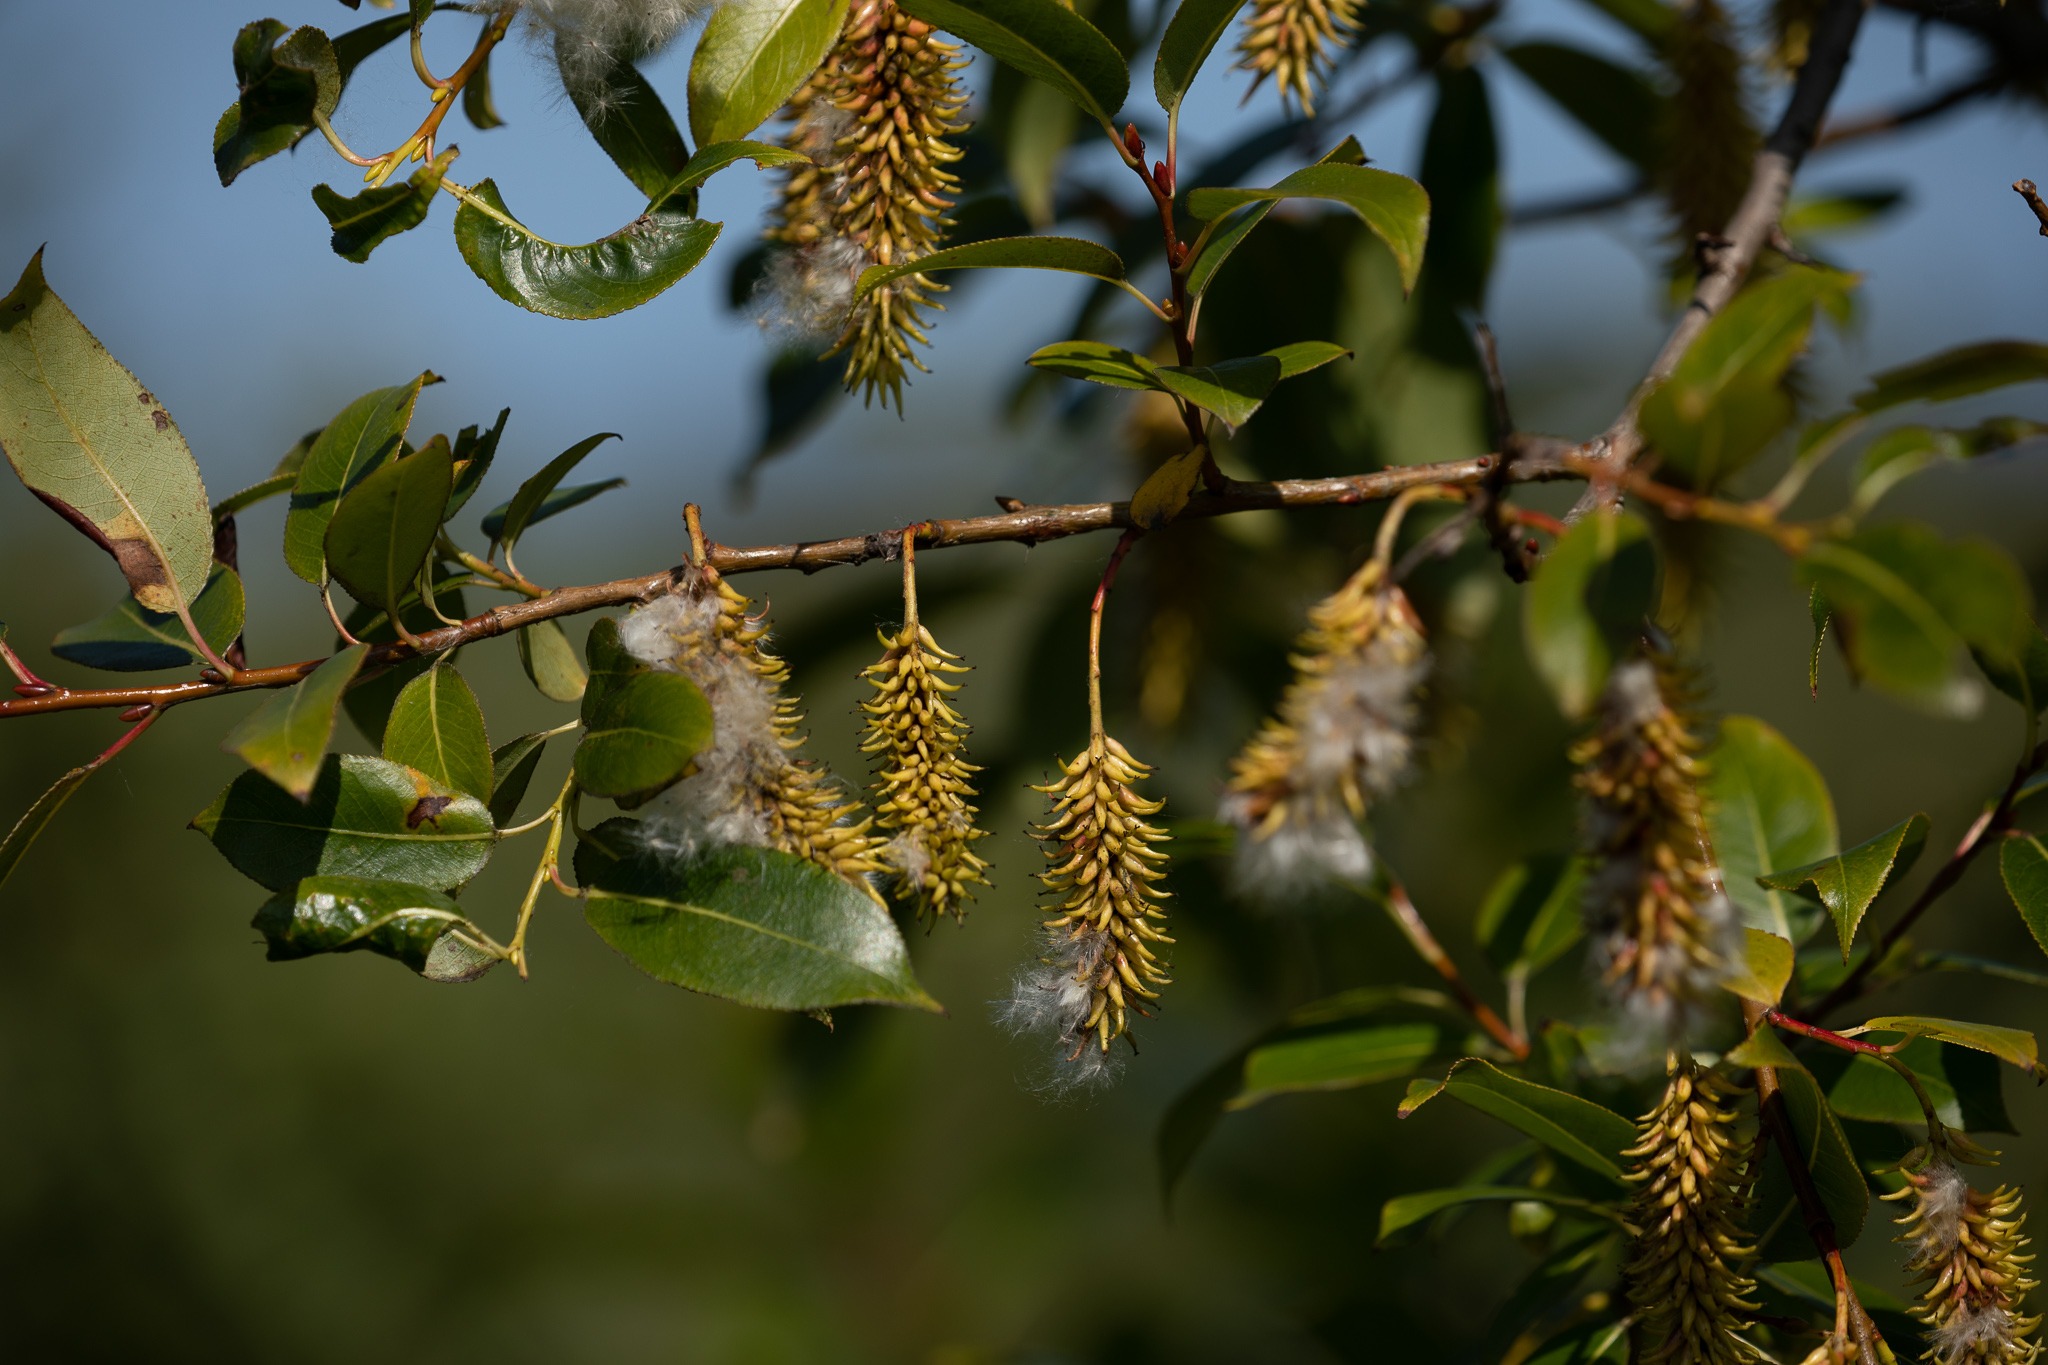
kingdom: Plantae
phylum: Tracheophyta
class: Magnoliopsida
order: Malpighiales
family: Salicaceae
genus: Salix
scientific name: Salix pentandra
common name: Femhannet pil
